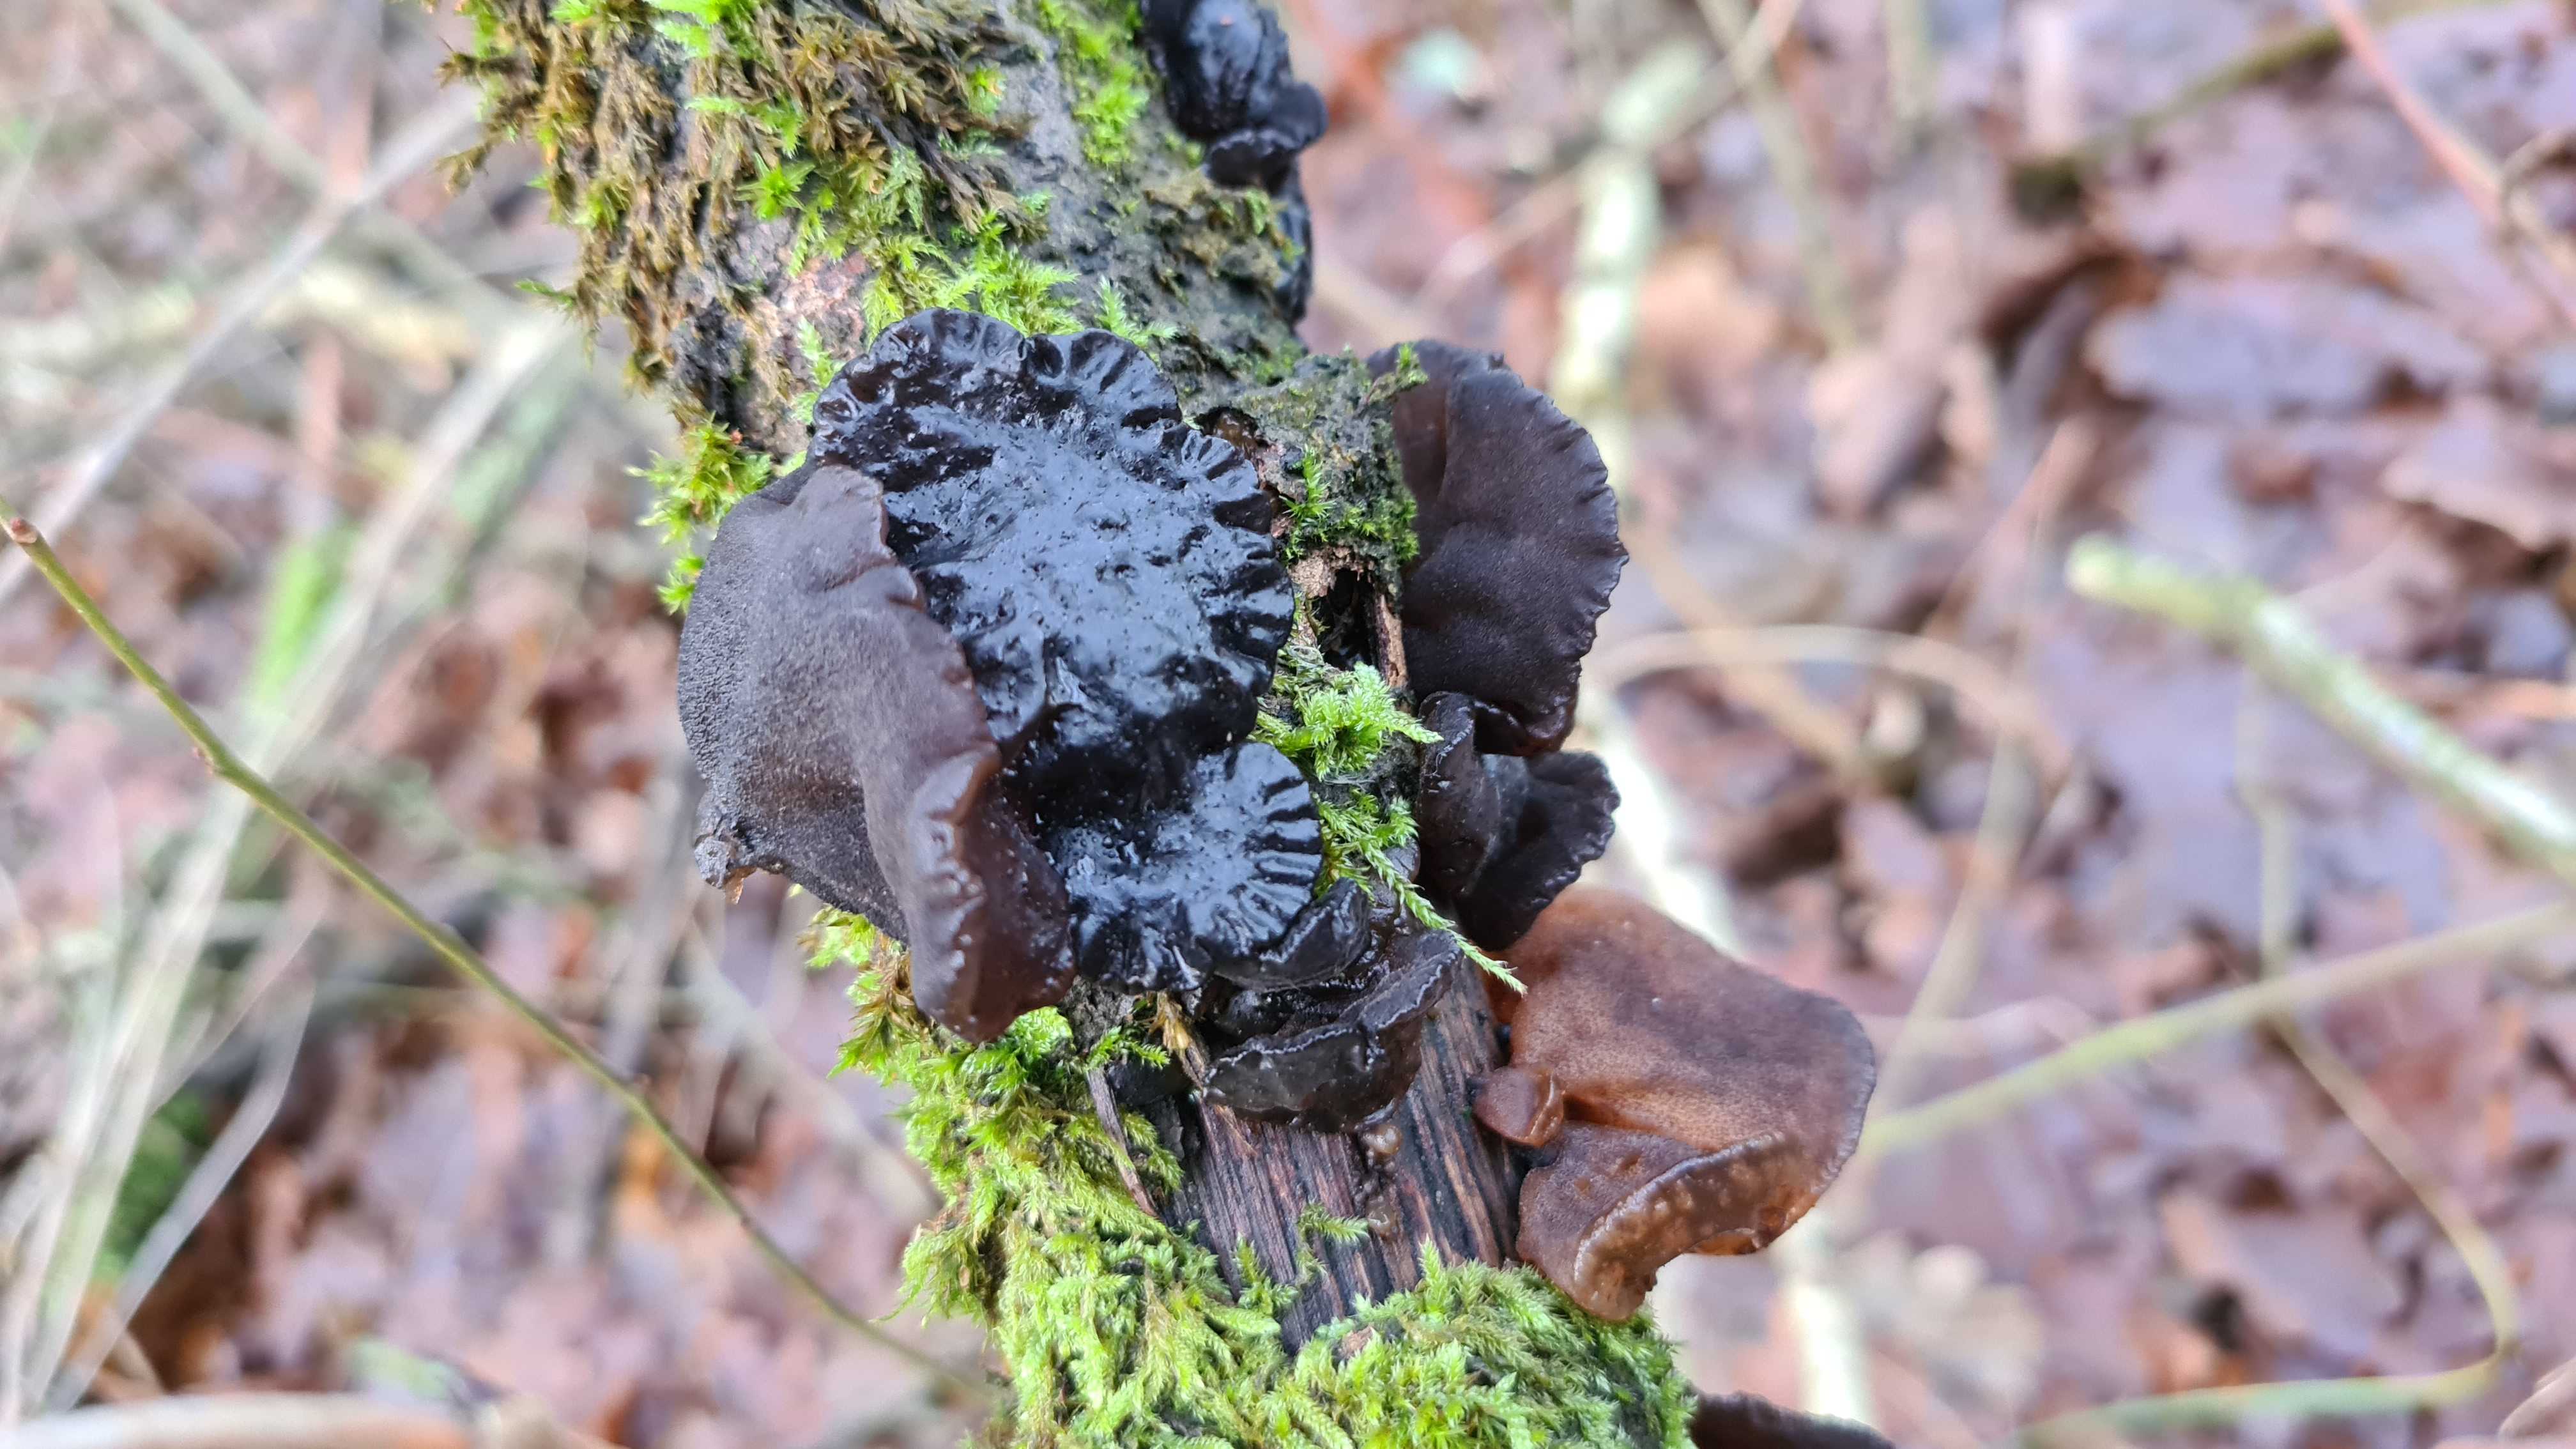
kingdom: Fungi
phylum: Basidiomycota
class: Agaricomycetes
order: Auriculariales
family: Auriculariaceae
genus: Exidia
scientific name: Exidia glandulosa
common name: ege-bævretop
